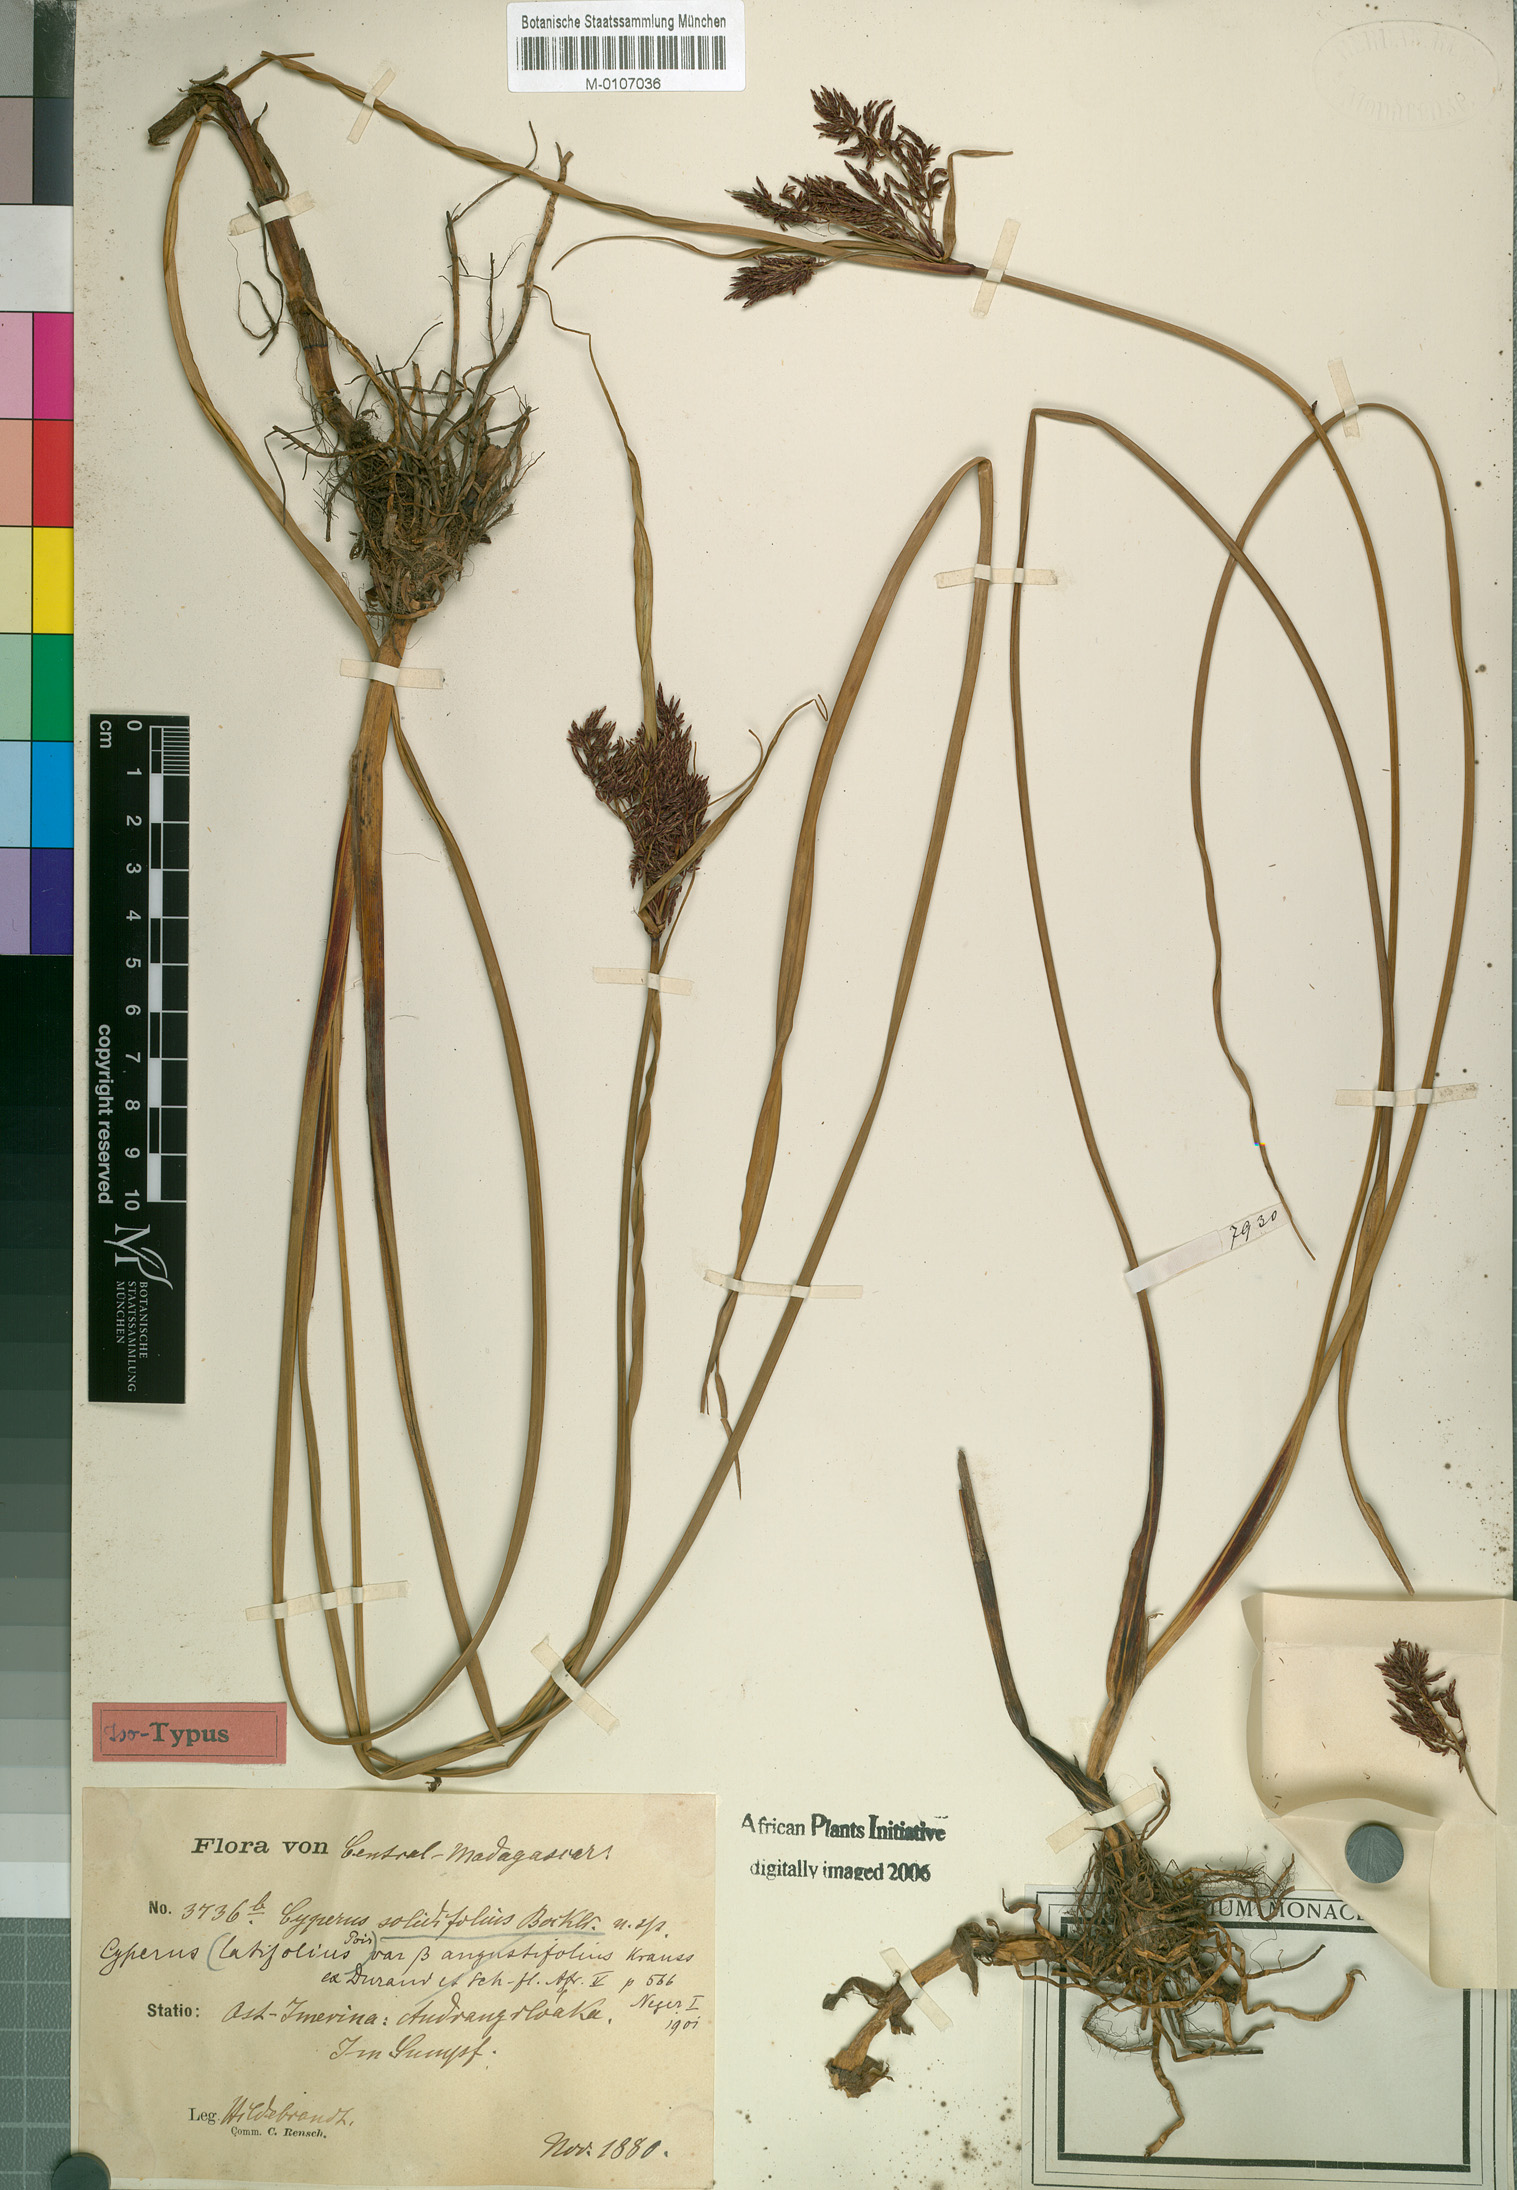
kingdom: Plantae
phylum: Tracheophyta
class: Liliopsida
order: Poales
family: Cyperaceae
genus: Cyperus
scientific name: Cyperus solidifolius
